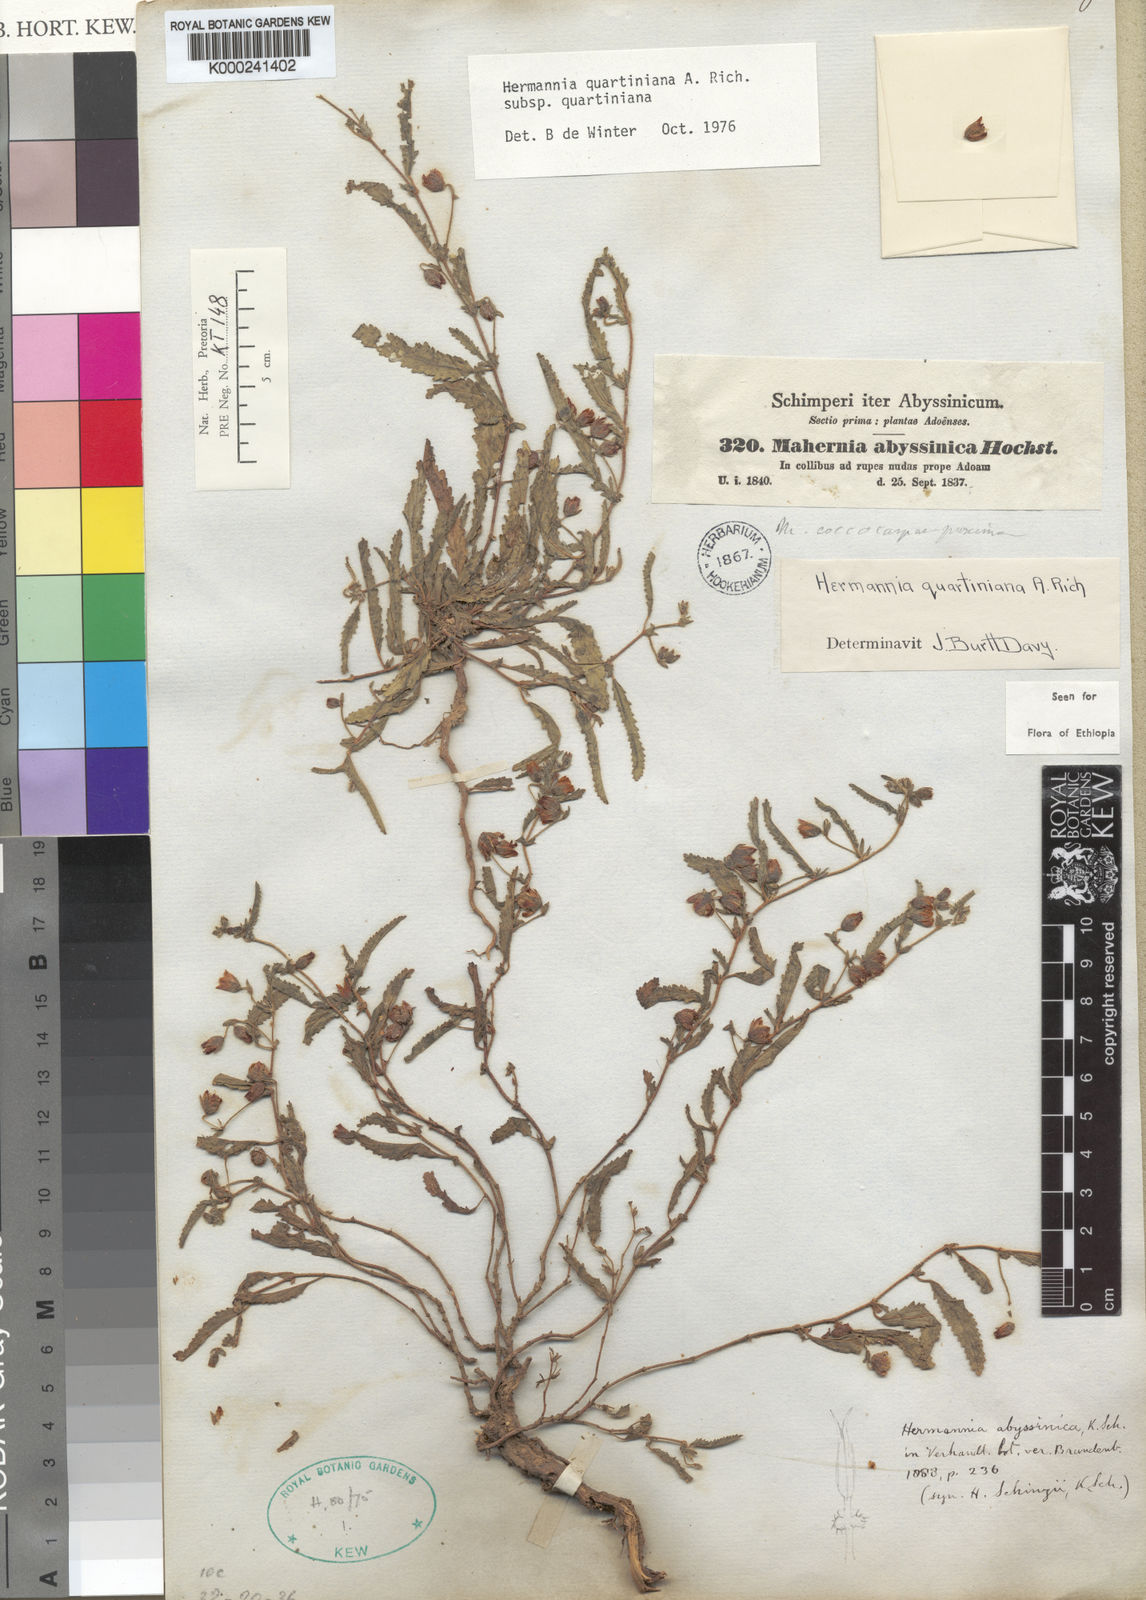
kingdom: Plantae
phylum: Tracheophyta
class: Magnoliopsida
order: Malvales
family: Malvaceae
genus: Hermannia
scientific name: Hermannia quartiniana
